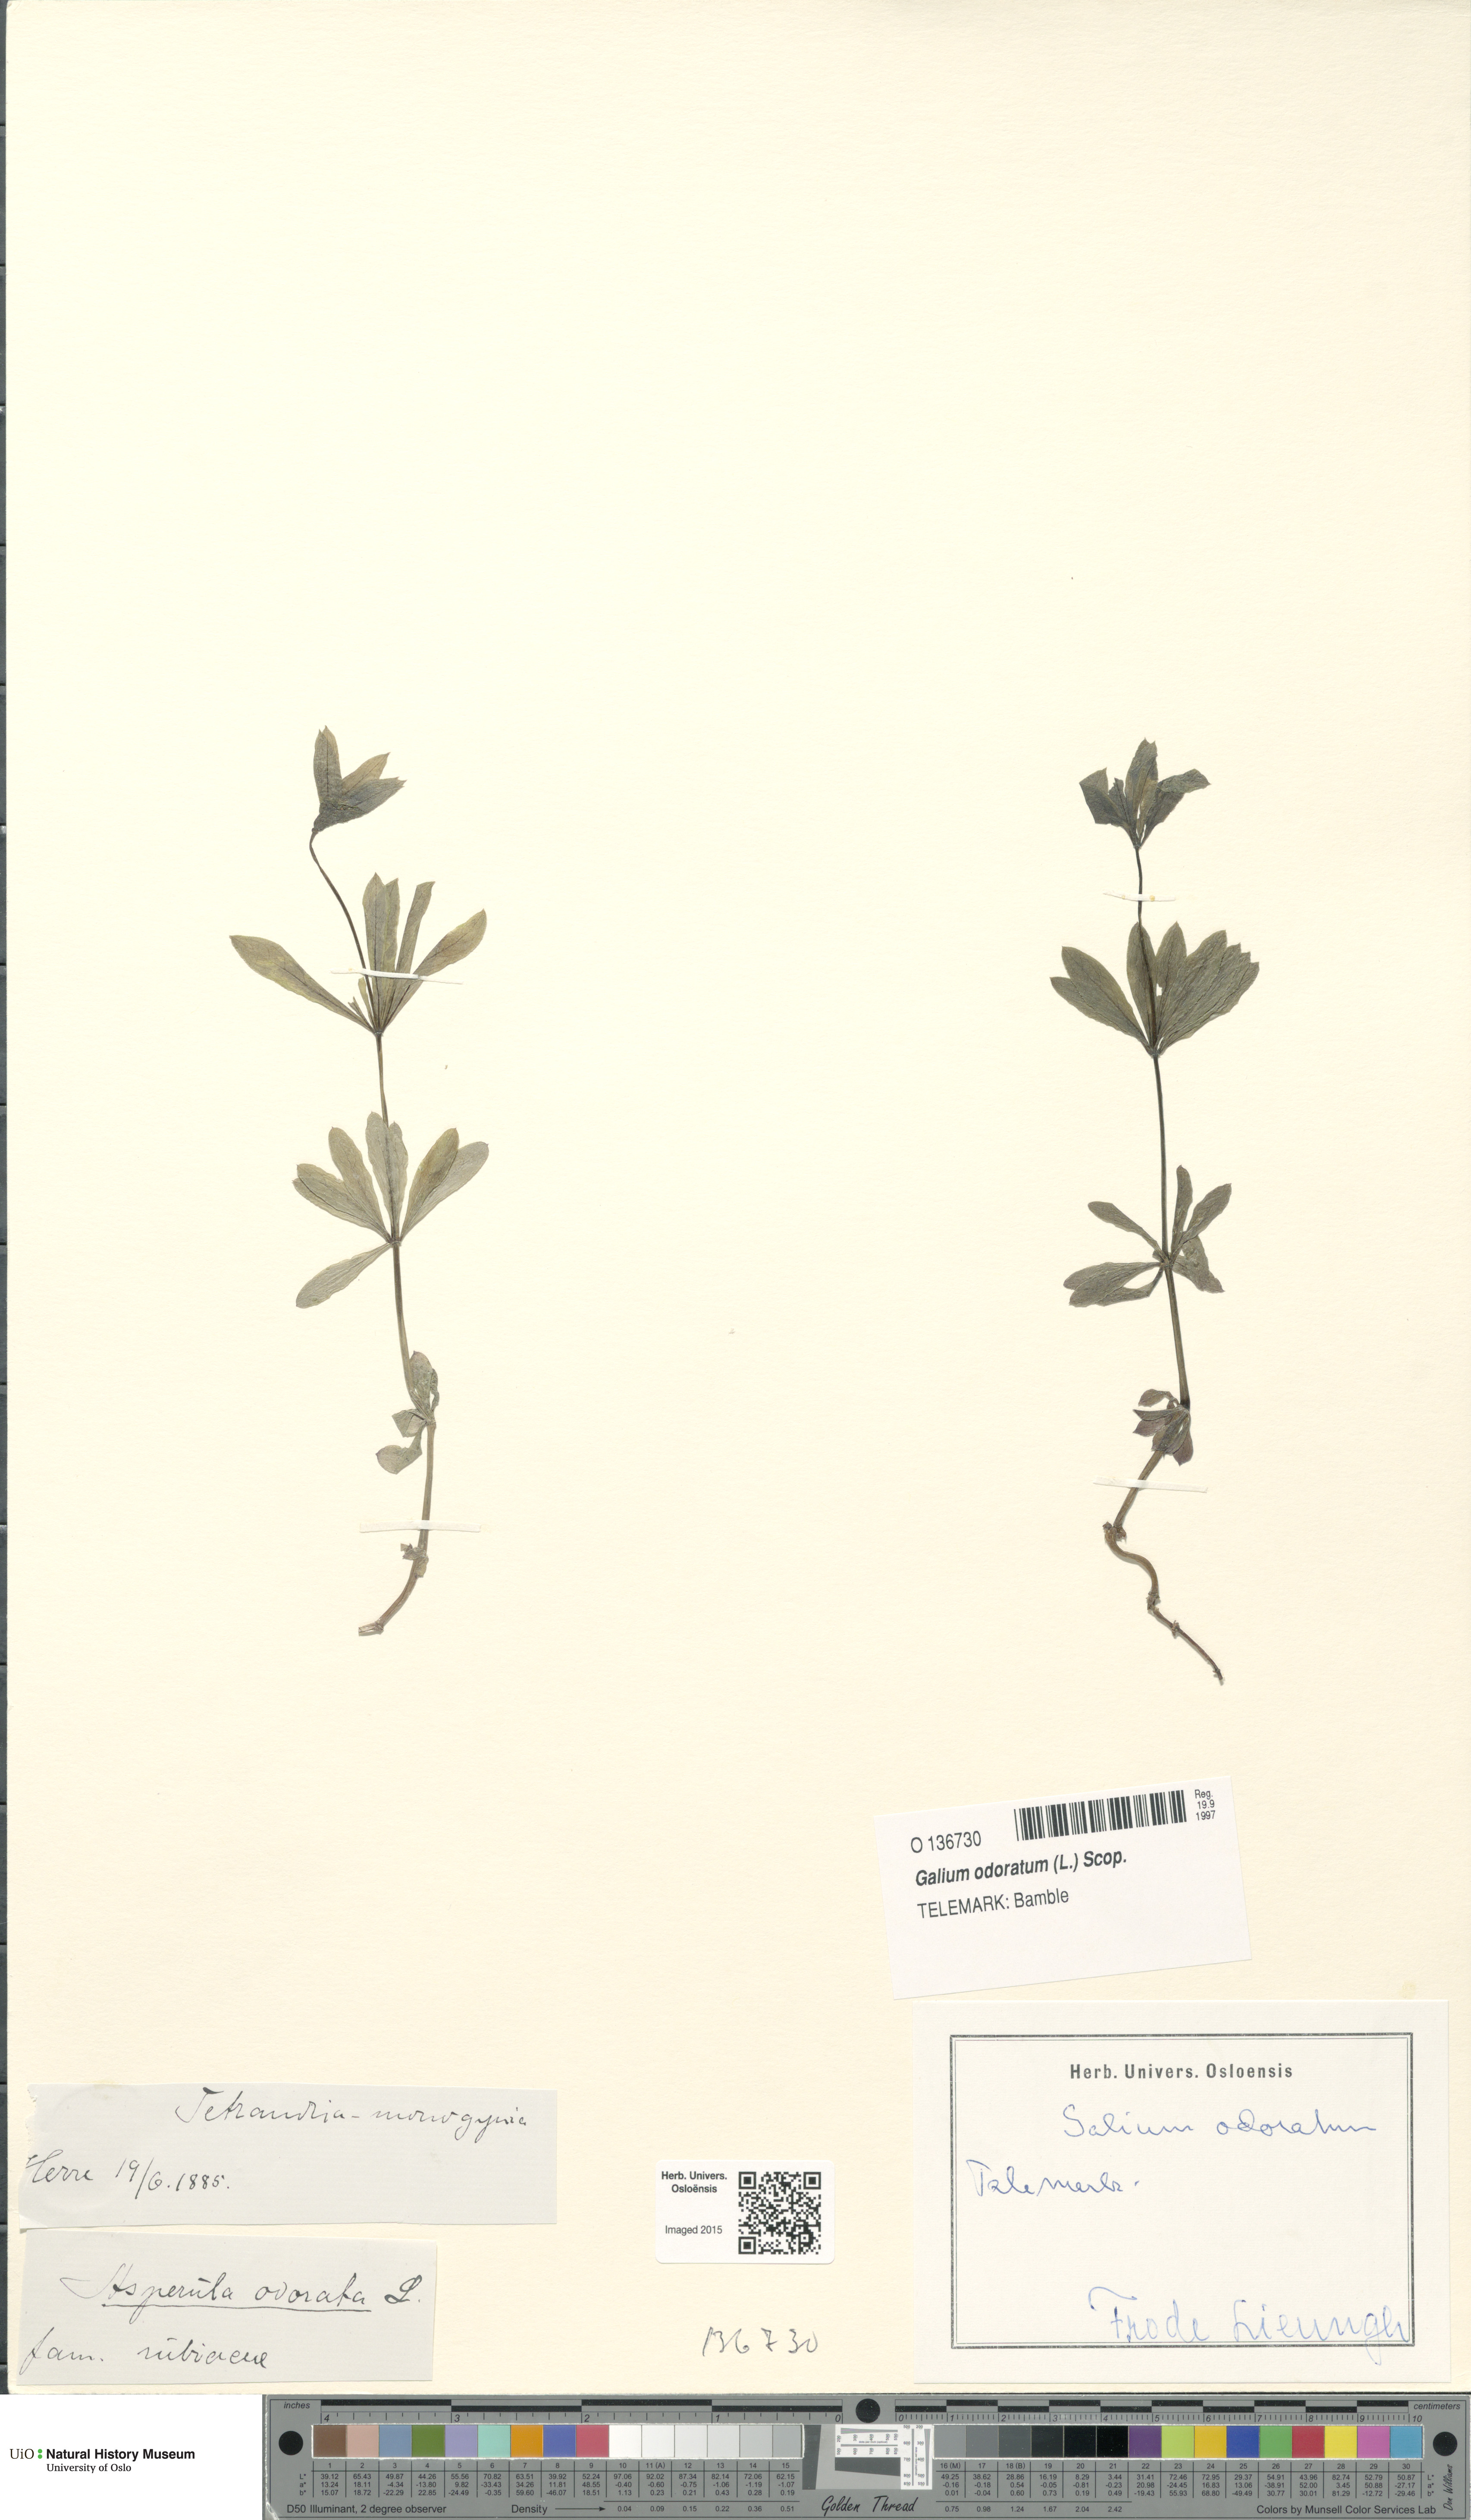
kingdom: Plantae
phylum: Tracheophyta
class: Magnoliopsida
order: Gentianales
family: Rubiaceae
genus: Galium
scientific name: Galium odoratum
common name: Sweet woodruff
